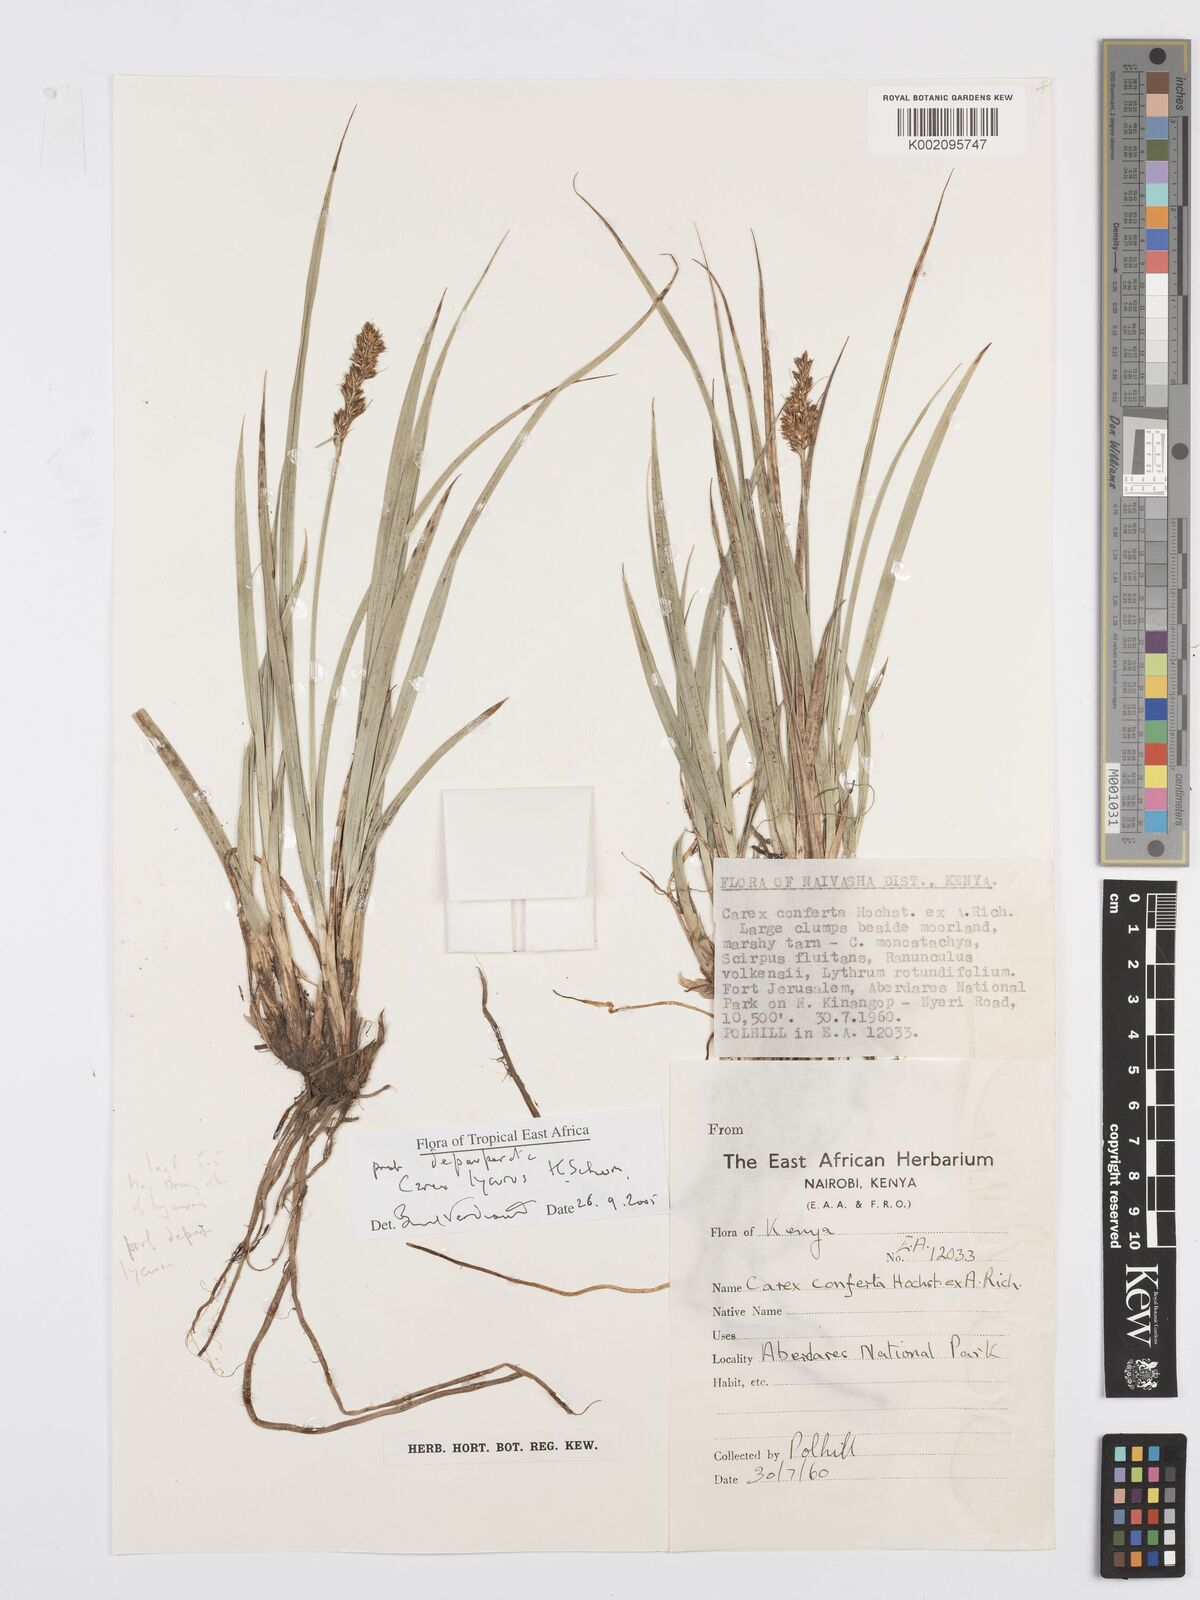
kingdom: Plantae
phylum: Tracheophyta
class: Liliopsida
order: Poales
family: Cyperaceae
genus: Carex
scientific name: Carex lycurus
